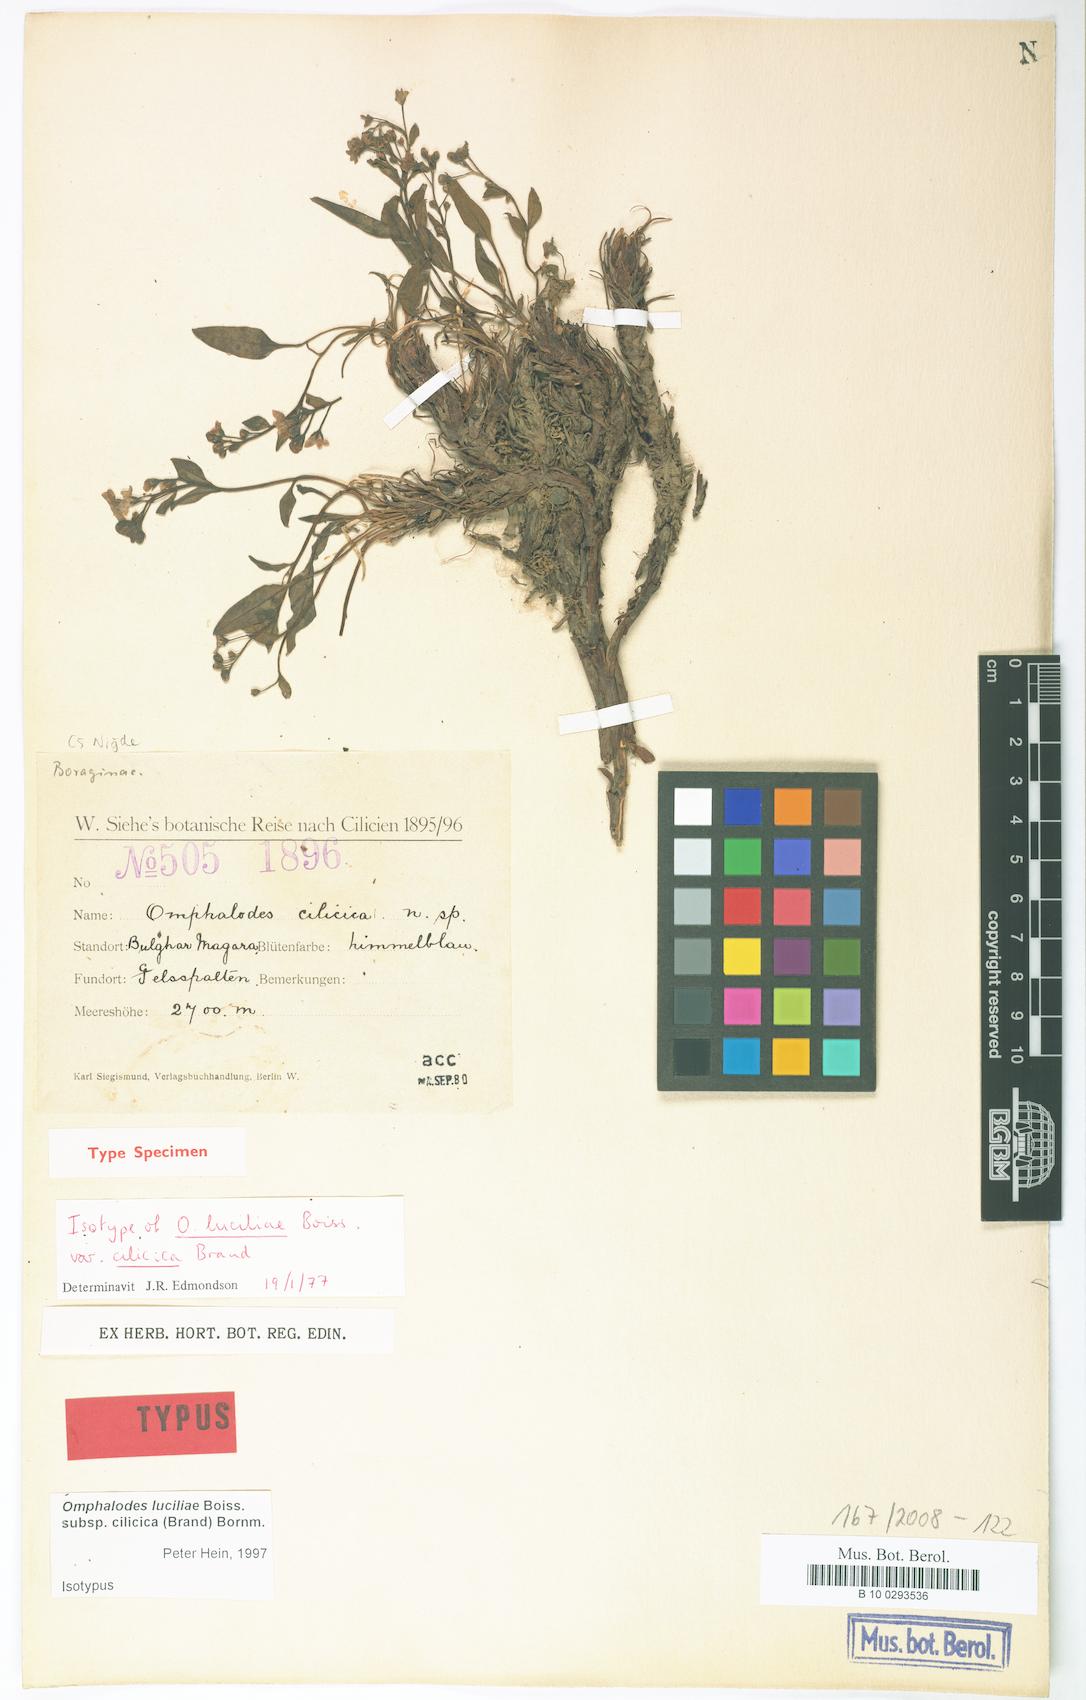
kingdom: Plantae
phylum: Tracheophyta
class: Magnoliopsida
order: Boraginales
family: Boraginaceae
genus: Omphalodes
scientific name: Omphalodes luciliae
